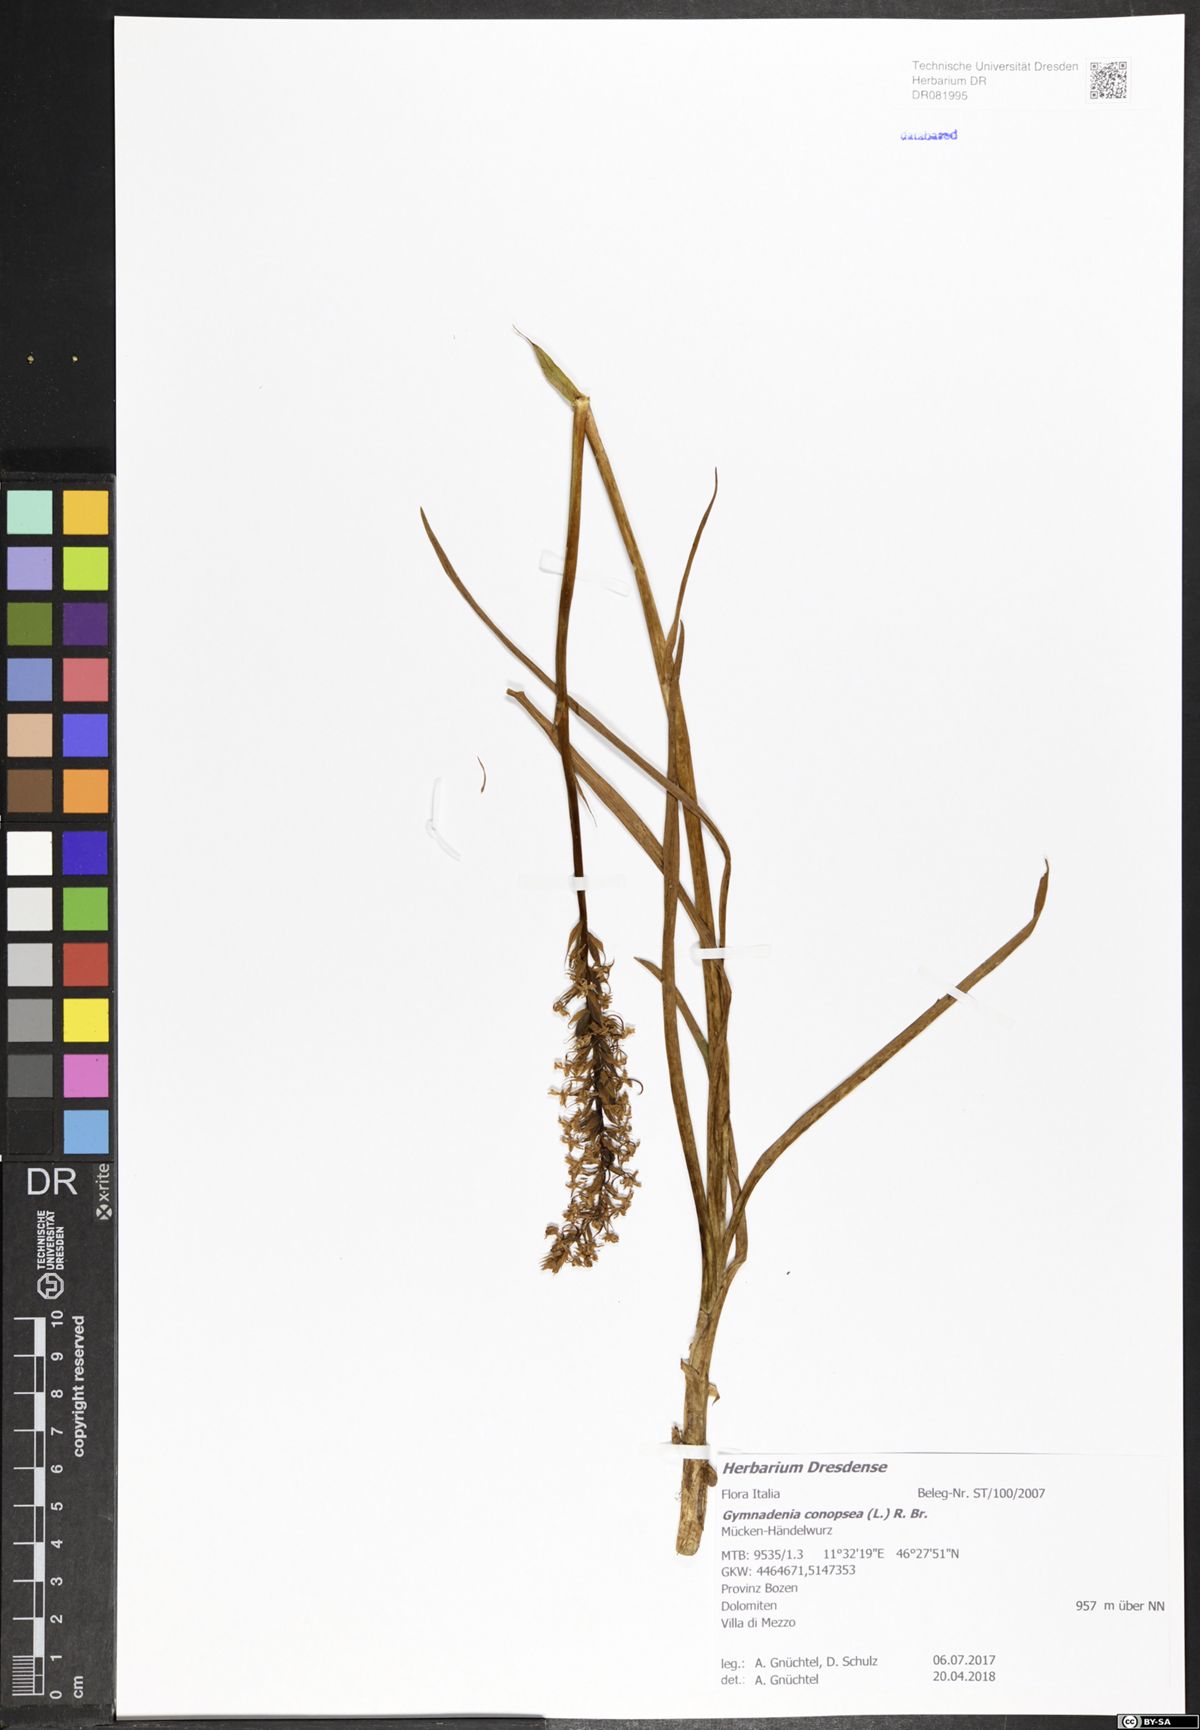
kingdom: Plantae
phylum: Tracheophyta
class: Liliopsida
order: Asparagales
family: Orchidaceae
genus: Gymnadenia
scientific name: Gymnadenia conopsea
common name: Fragrant orchid
